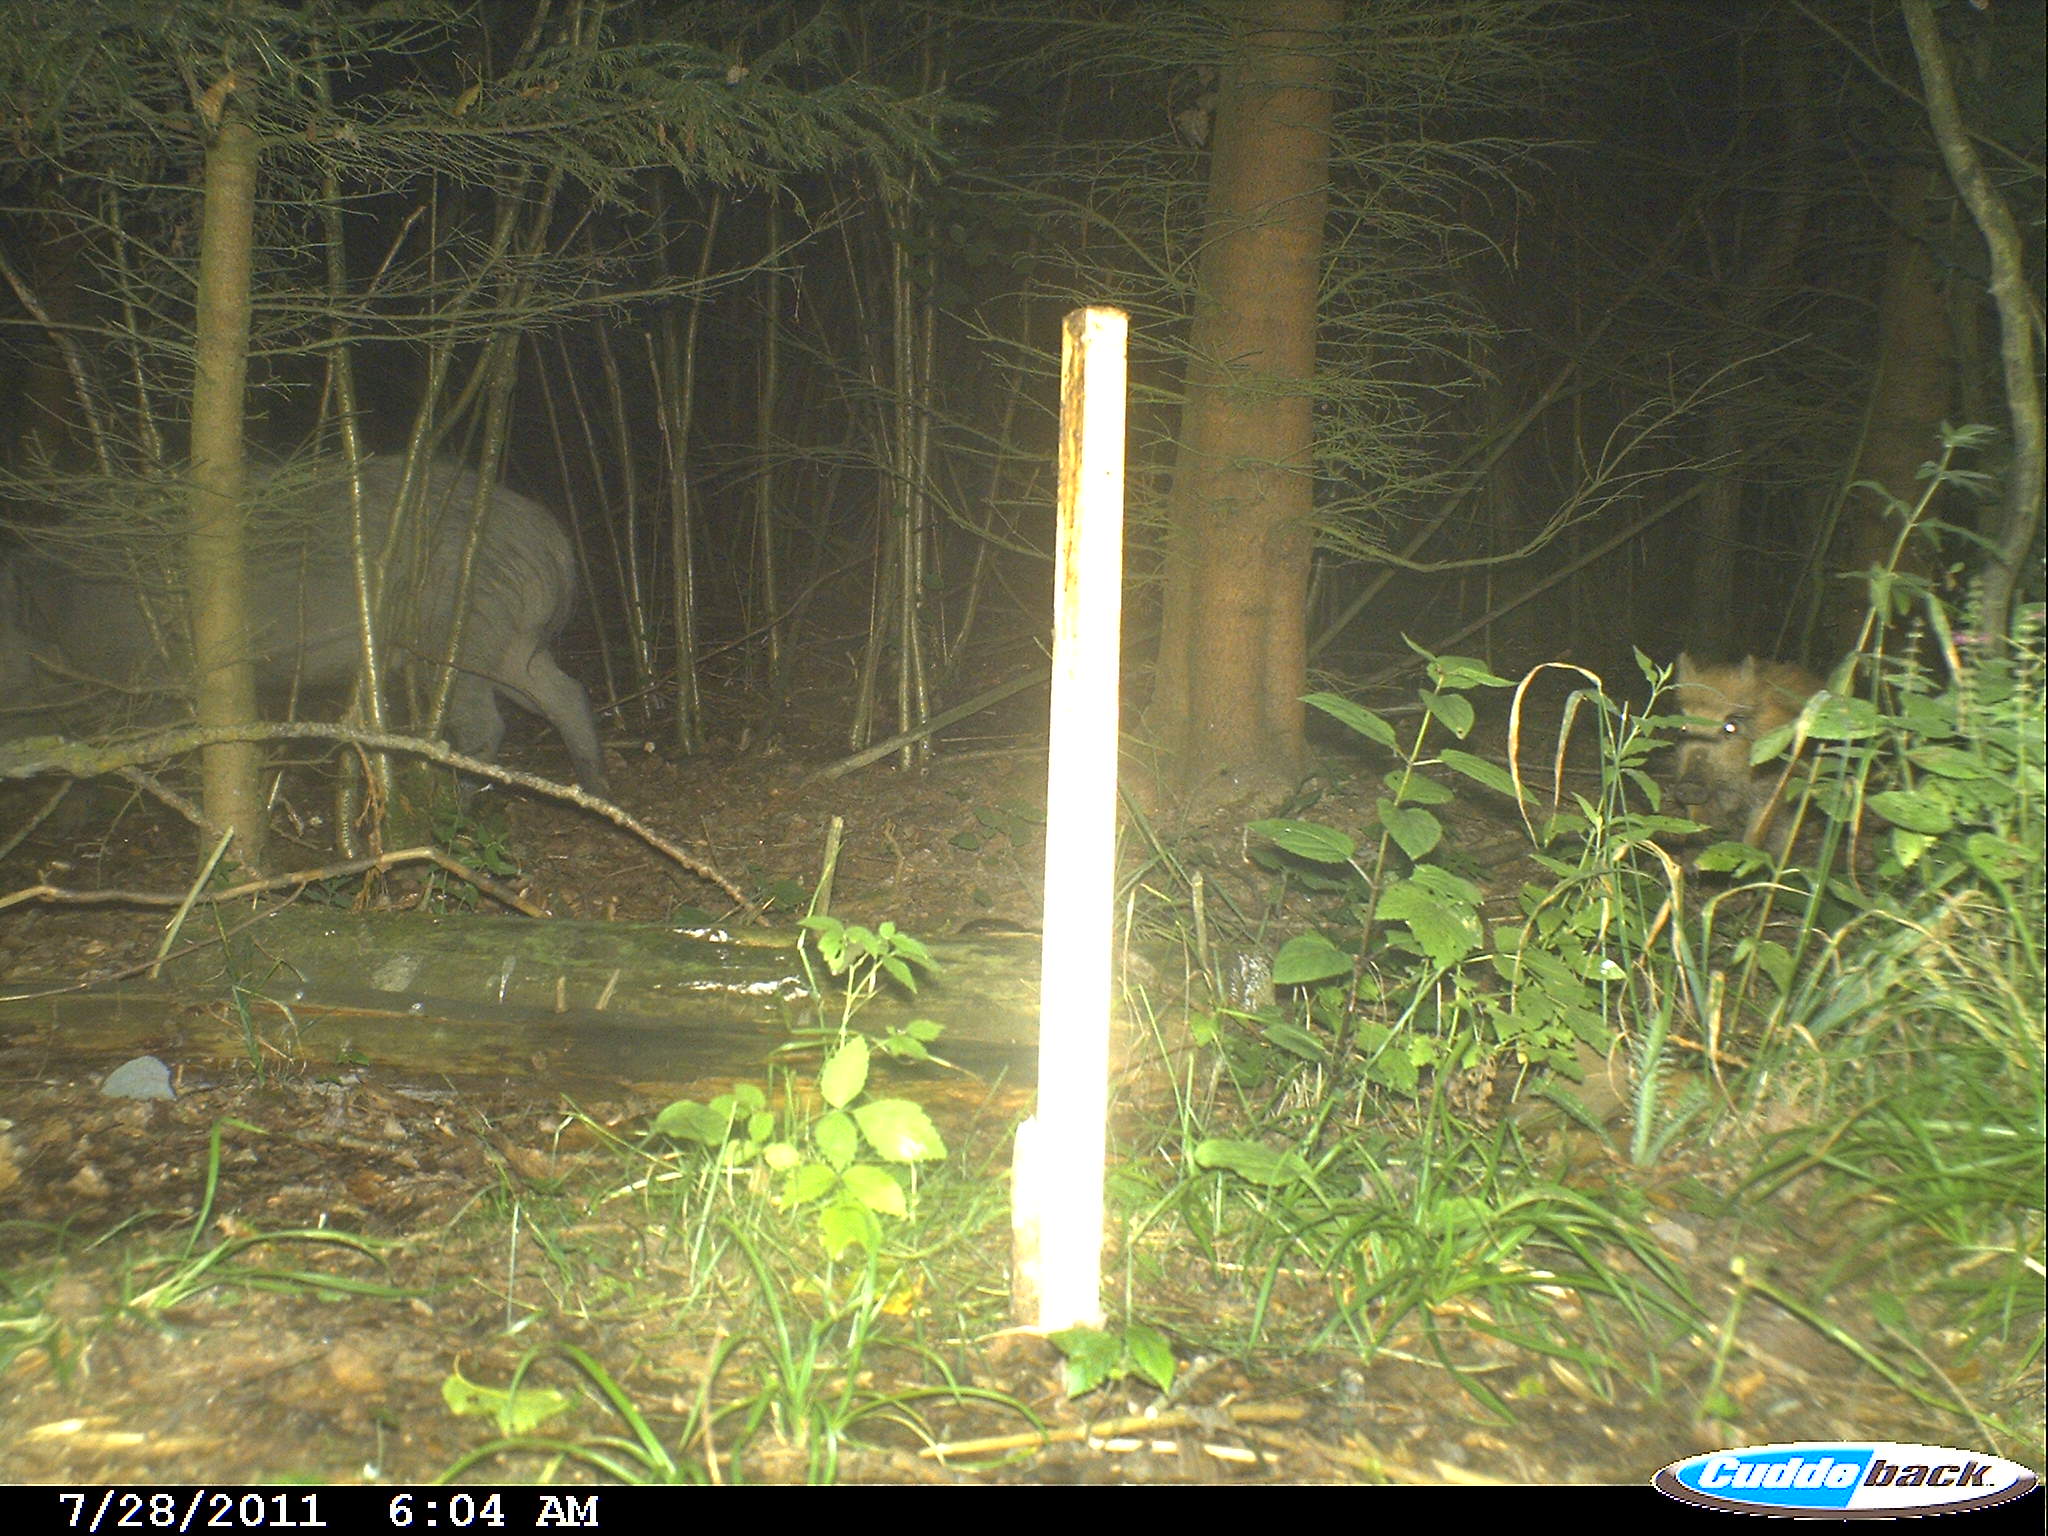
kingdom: Animalia
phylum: Chordata
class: Mammalia
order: Artiodactyla
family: Suidae
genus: Sus
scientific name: Sus scrofa
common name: Wild boar
